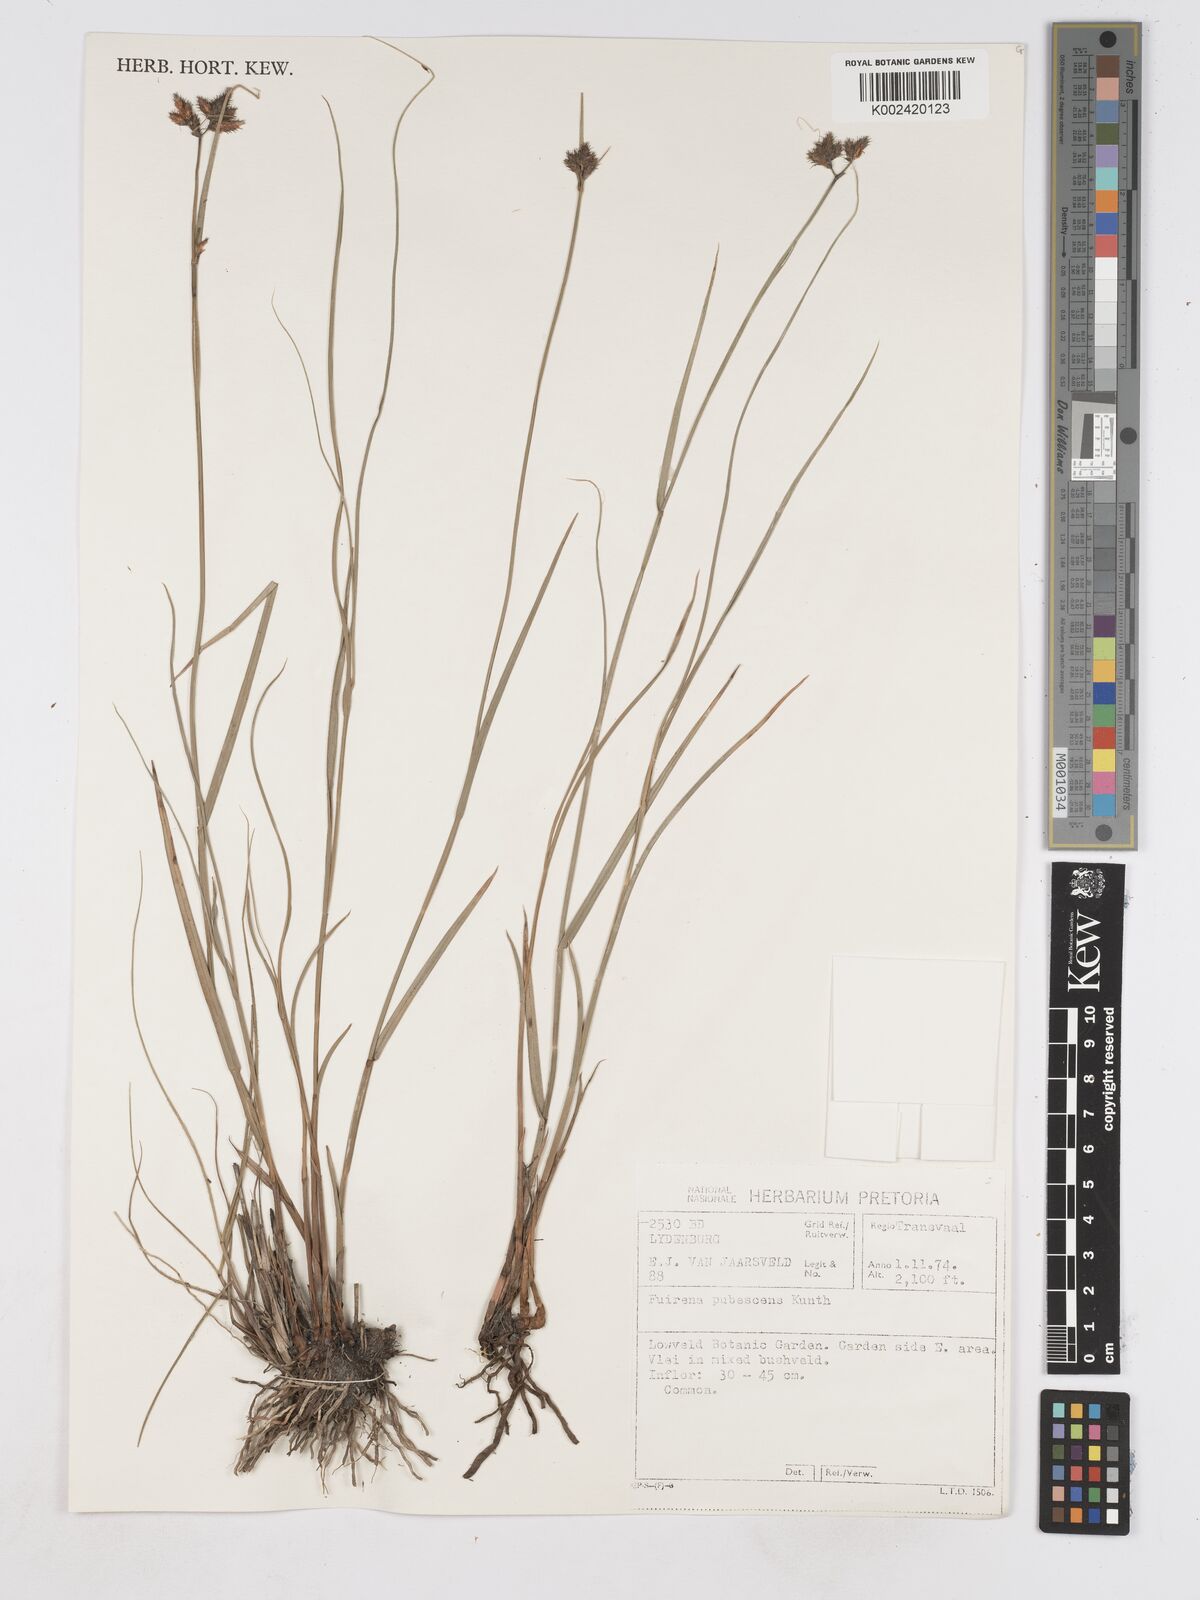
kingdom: Plantae
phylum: Tracheophyta
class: Liliopsida
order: Poales
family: Cyperaceae
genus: Fuirena
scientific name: Fuirena pubescens
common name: Hairy sedge
